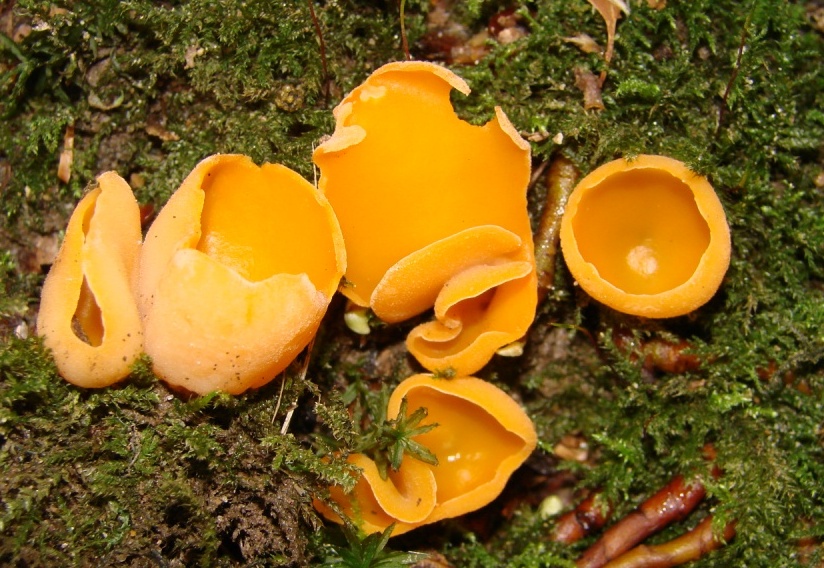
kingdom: Fungi
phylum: Ascomycota
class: Pezizomycetes
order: Pezizales
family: Pyronemataceae
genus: Aleuria
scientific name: Aleuria aurantia
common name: almindelig orangebæger
